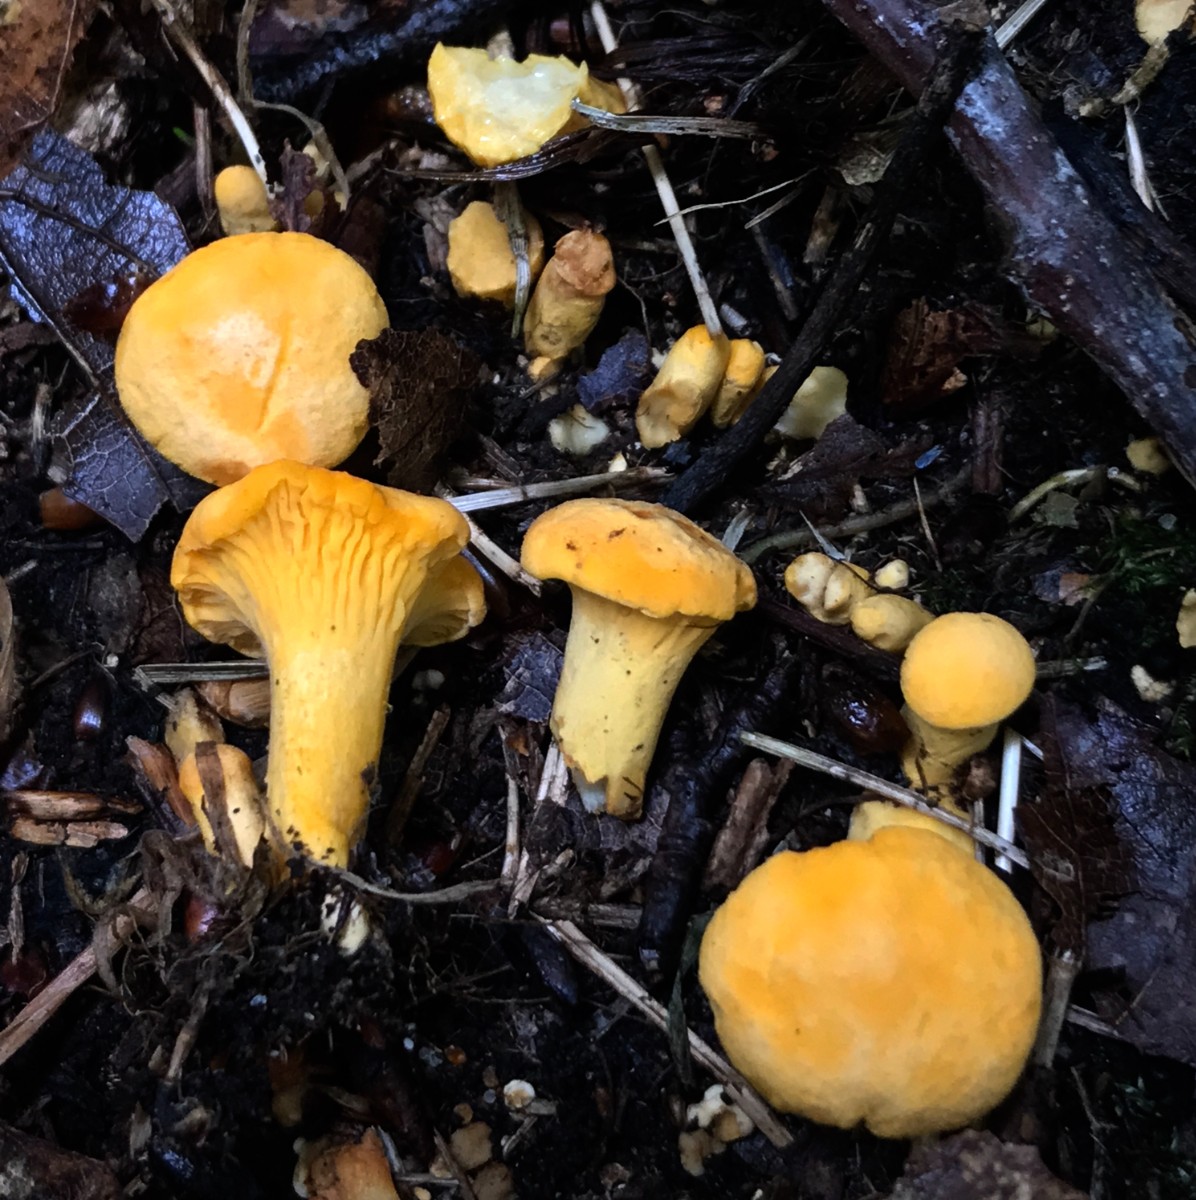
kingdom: Fungi
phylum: Basidiomycota
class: Agaricomycetes
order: Cantharellales
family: Hydnaceae
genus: Cantharellus
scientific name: Cantharellus pallens
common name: bleg kantarel
